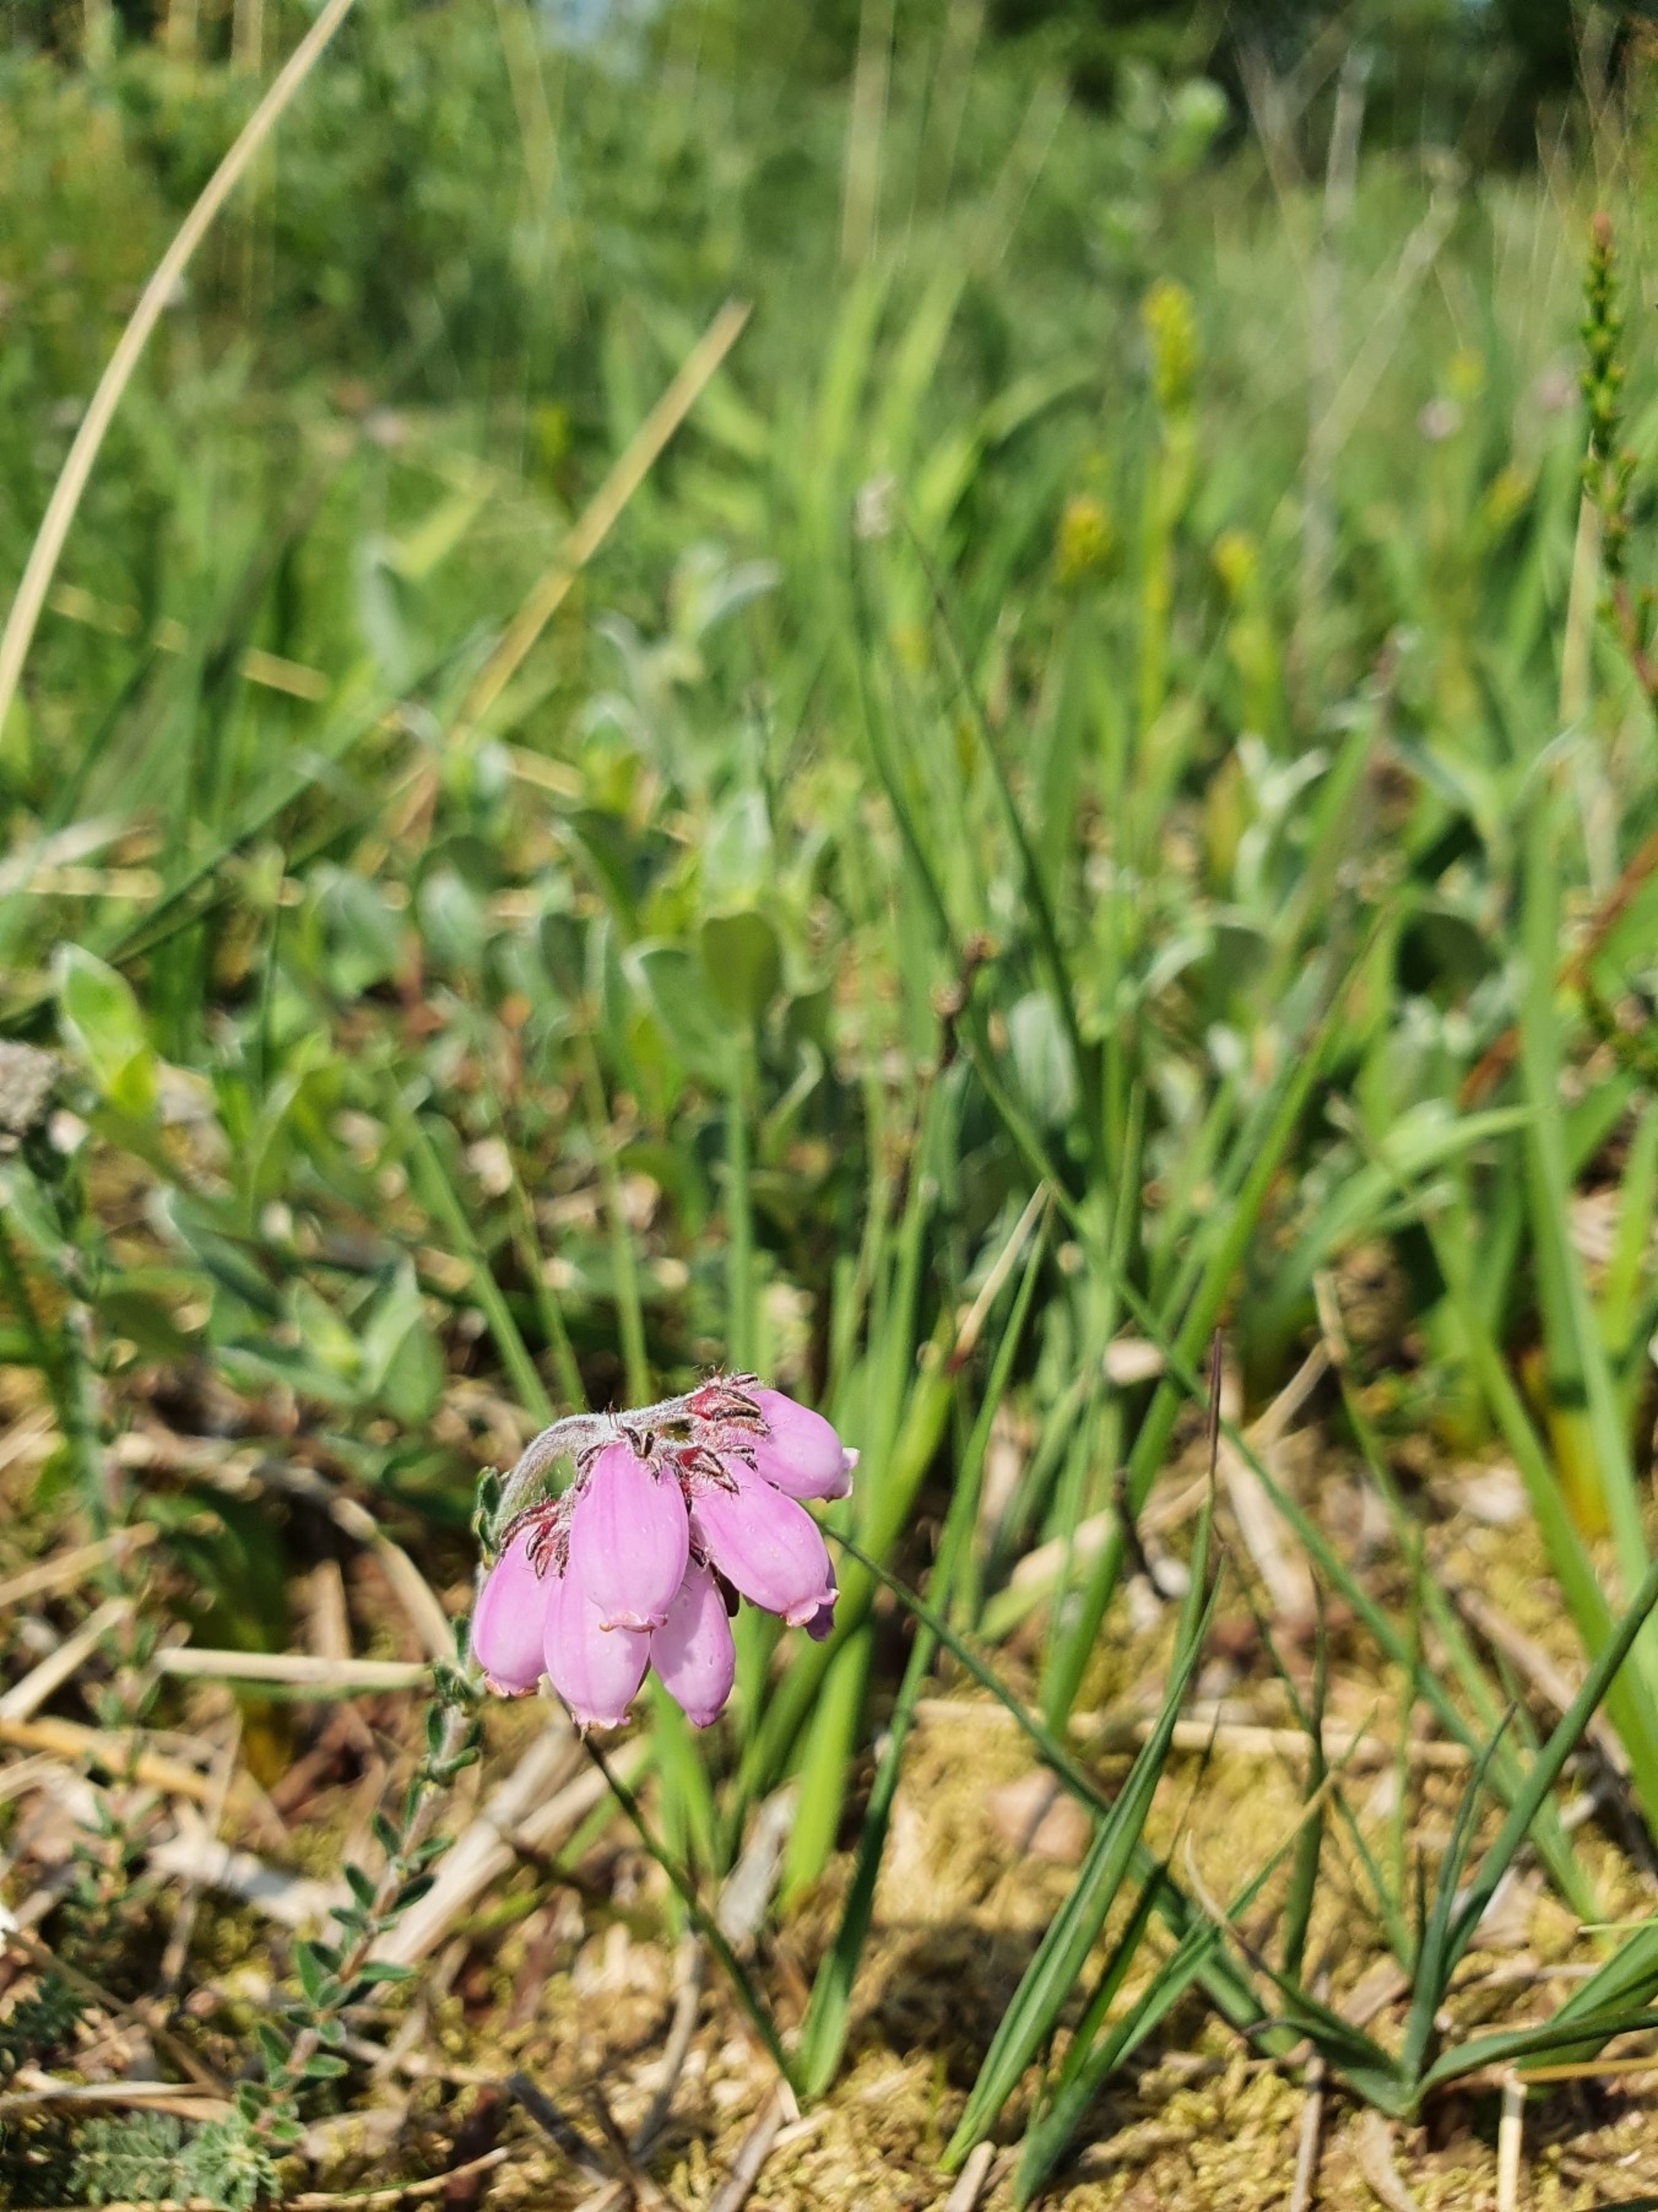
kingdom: Plantae
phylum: Tracheophyta
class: Magnoliopsida
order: Ericales
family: Ericaceae
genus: Erica
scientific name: Erica tetralix
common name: Klokkelyng
